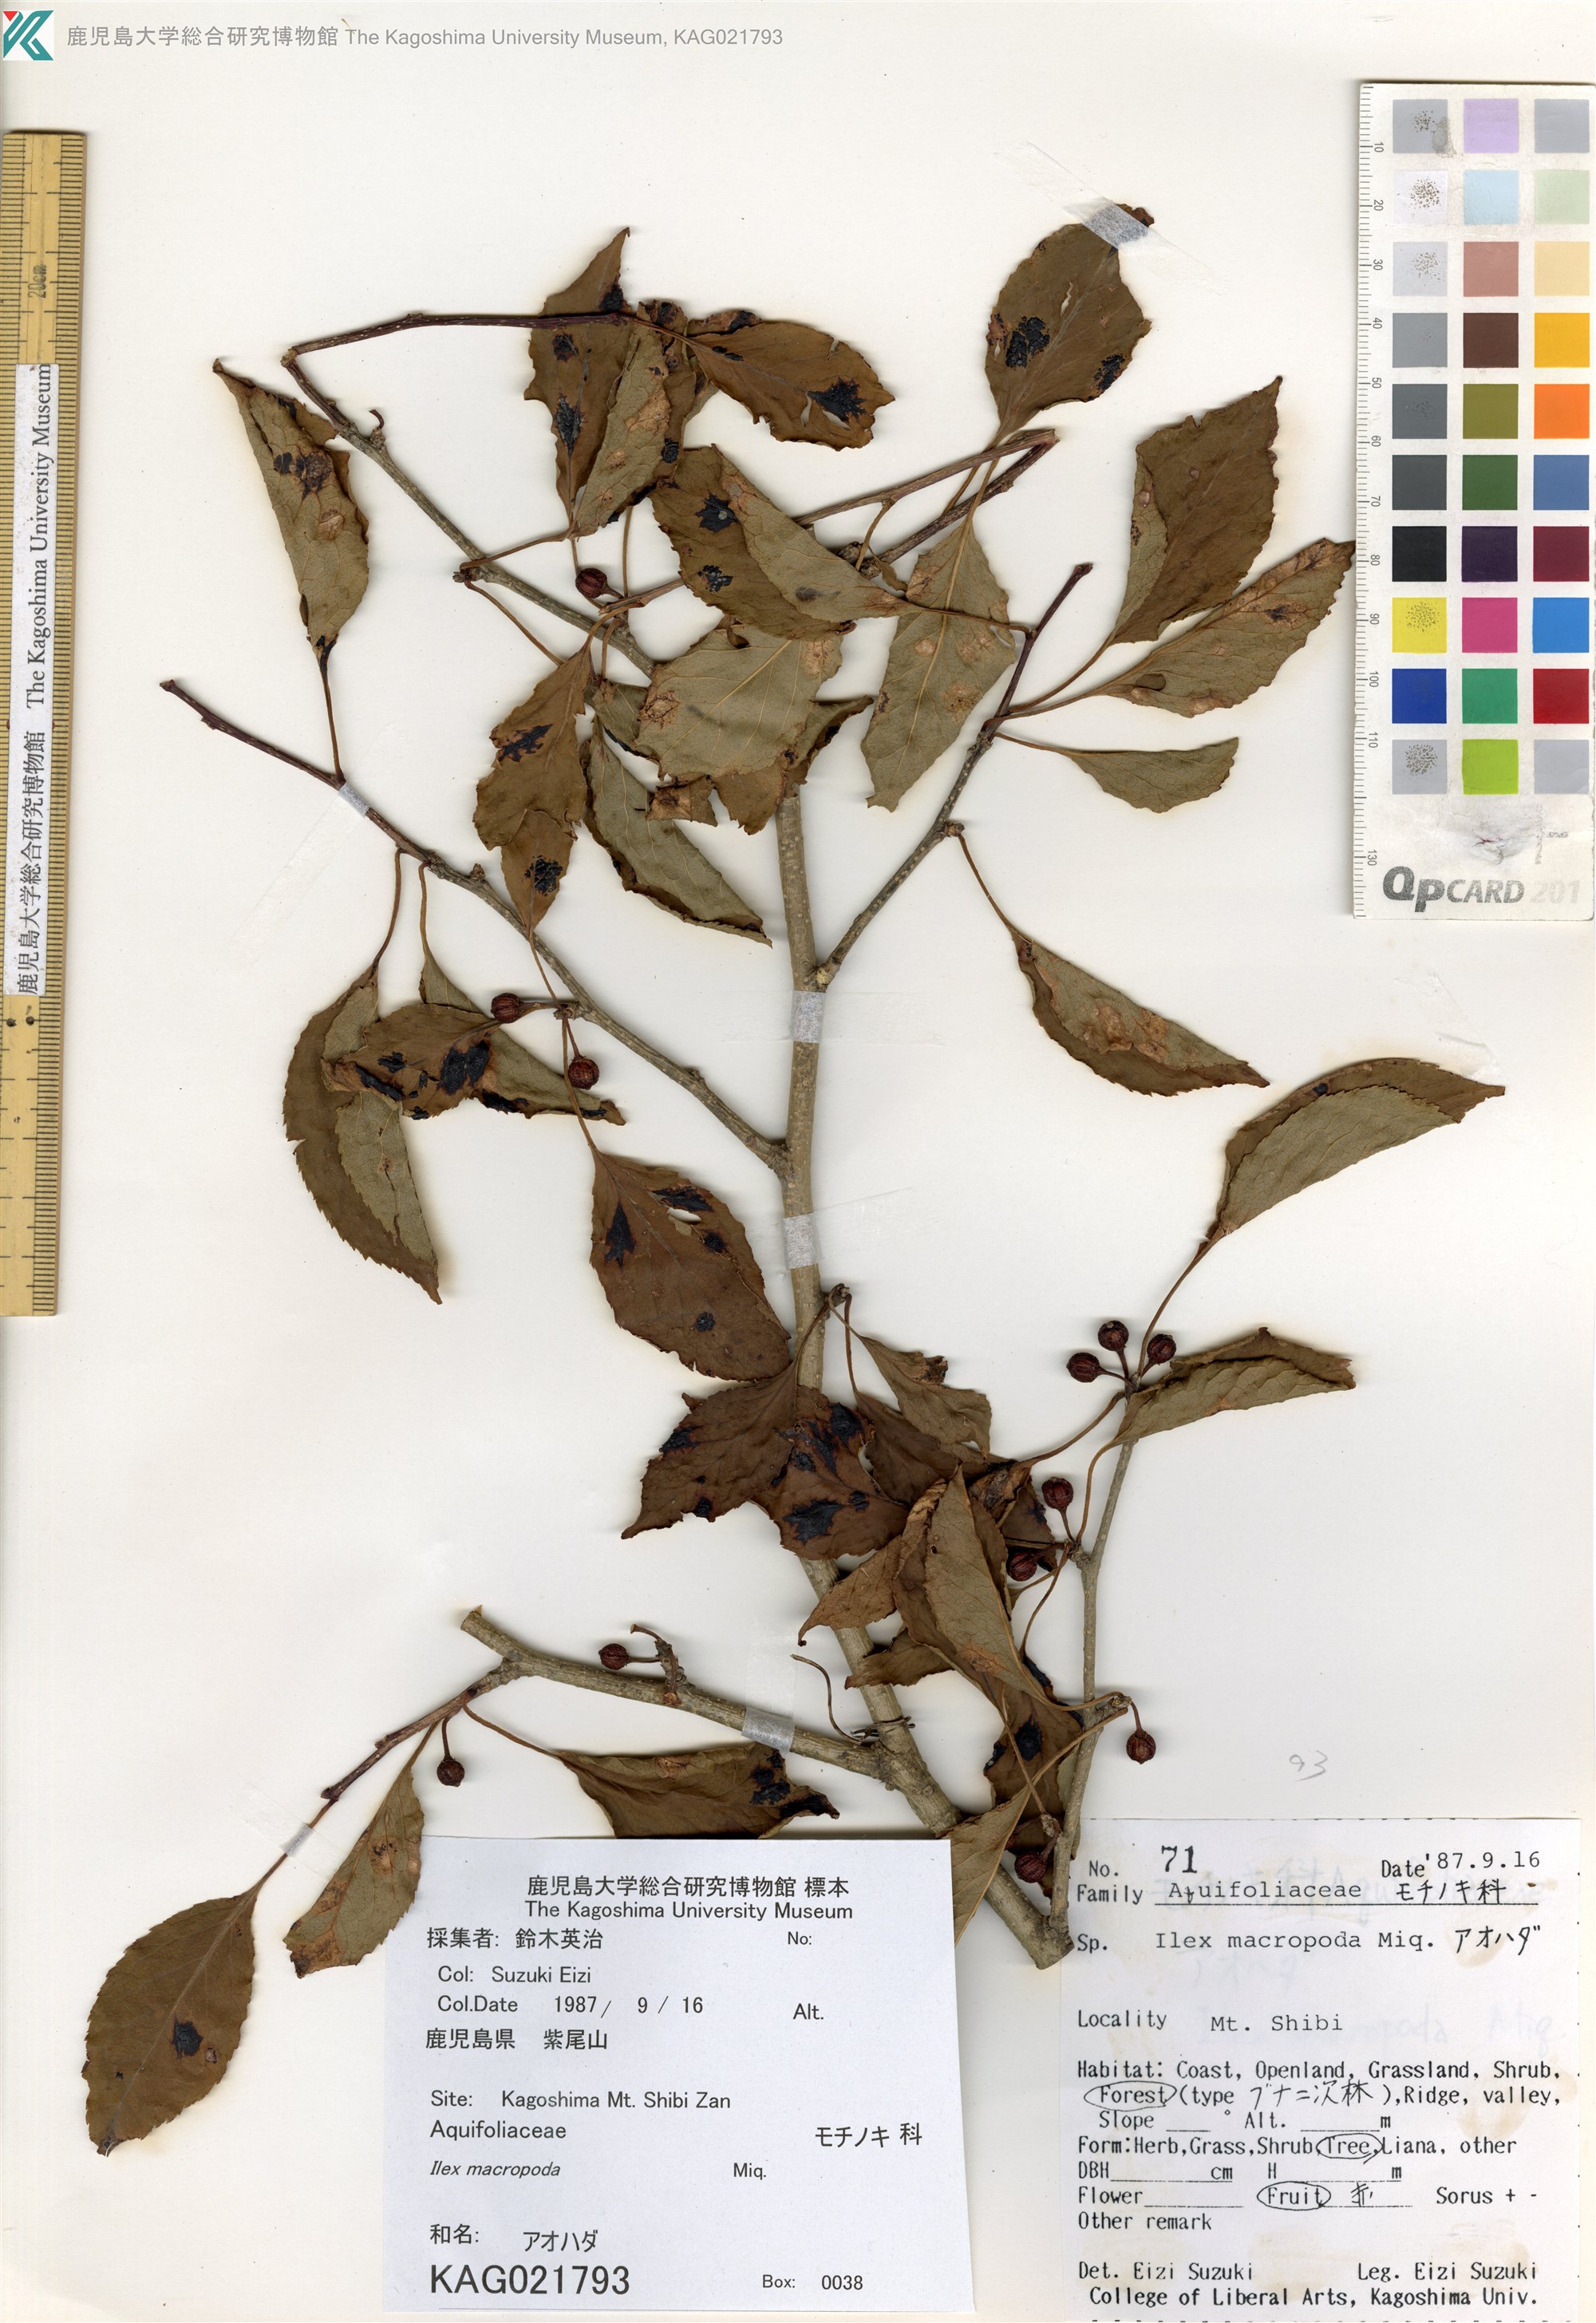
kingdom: Plantae
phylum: Tracheophyta
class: Magnoliopsida
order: Aquifoliales
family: Aquifoliaceae
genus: Ilex
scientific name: Ilex macropoda
